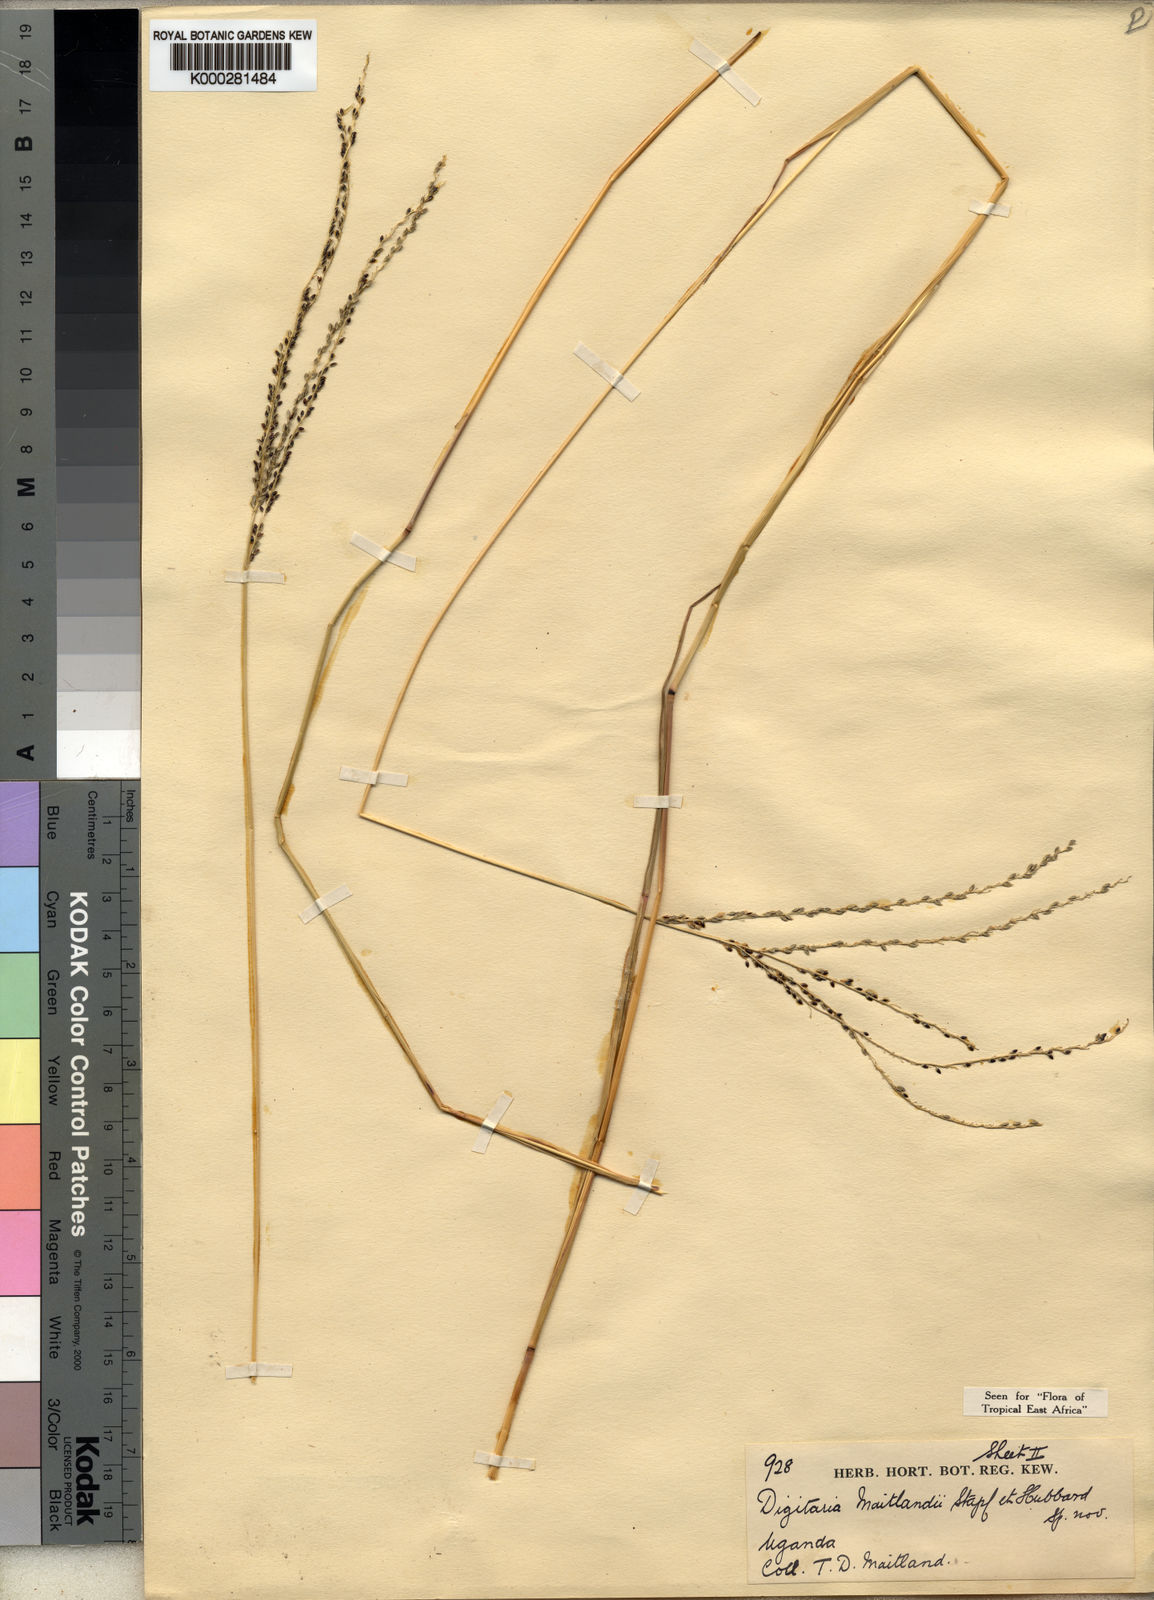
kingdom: Plantae
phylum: Tracheophyta
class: Liliopsida
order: Poales
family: Poaceae
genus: Digitaria
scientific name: Digitaria maitlandii
